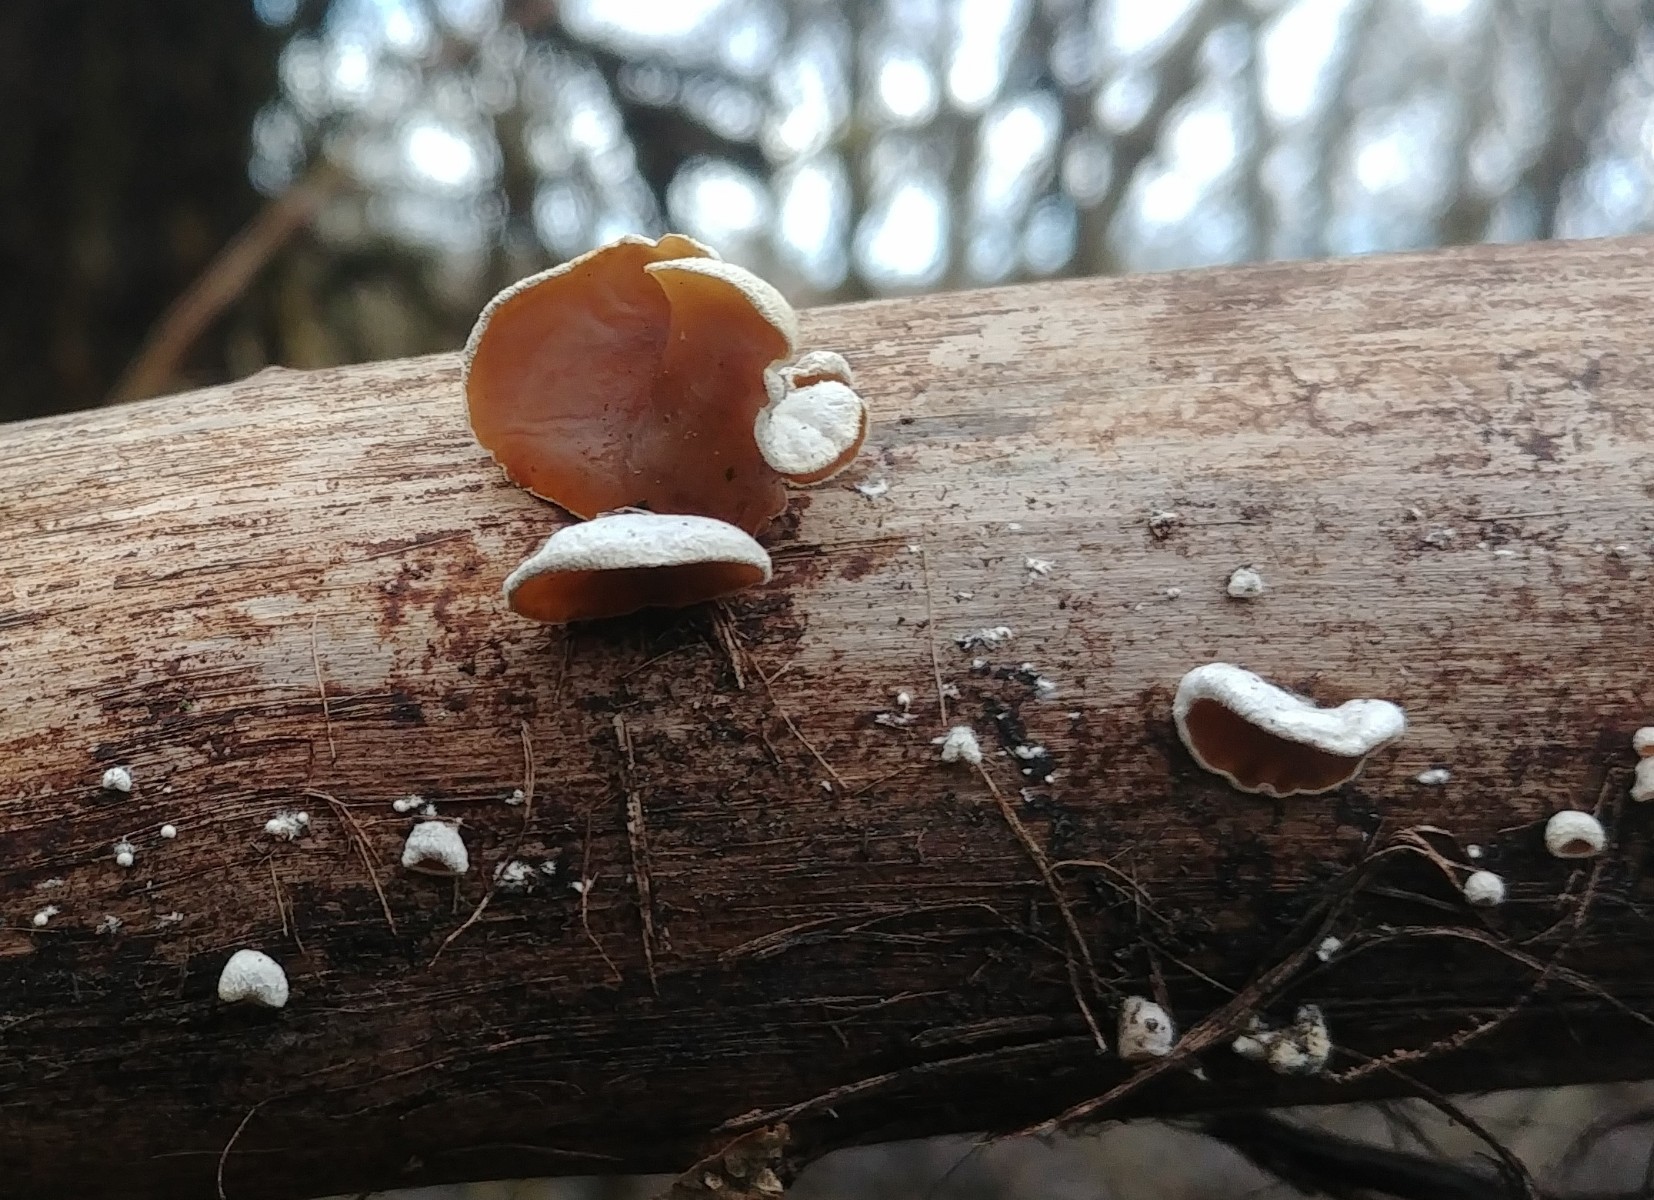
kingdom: Fungi
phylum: Basidiomycota
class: Agaricomycetes
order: Agaricales
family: Schizophyllaceae
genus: Schizophyllum
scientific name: Schizophyllum amplum
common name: poppel-hængeøre
